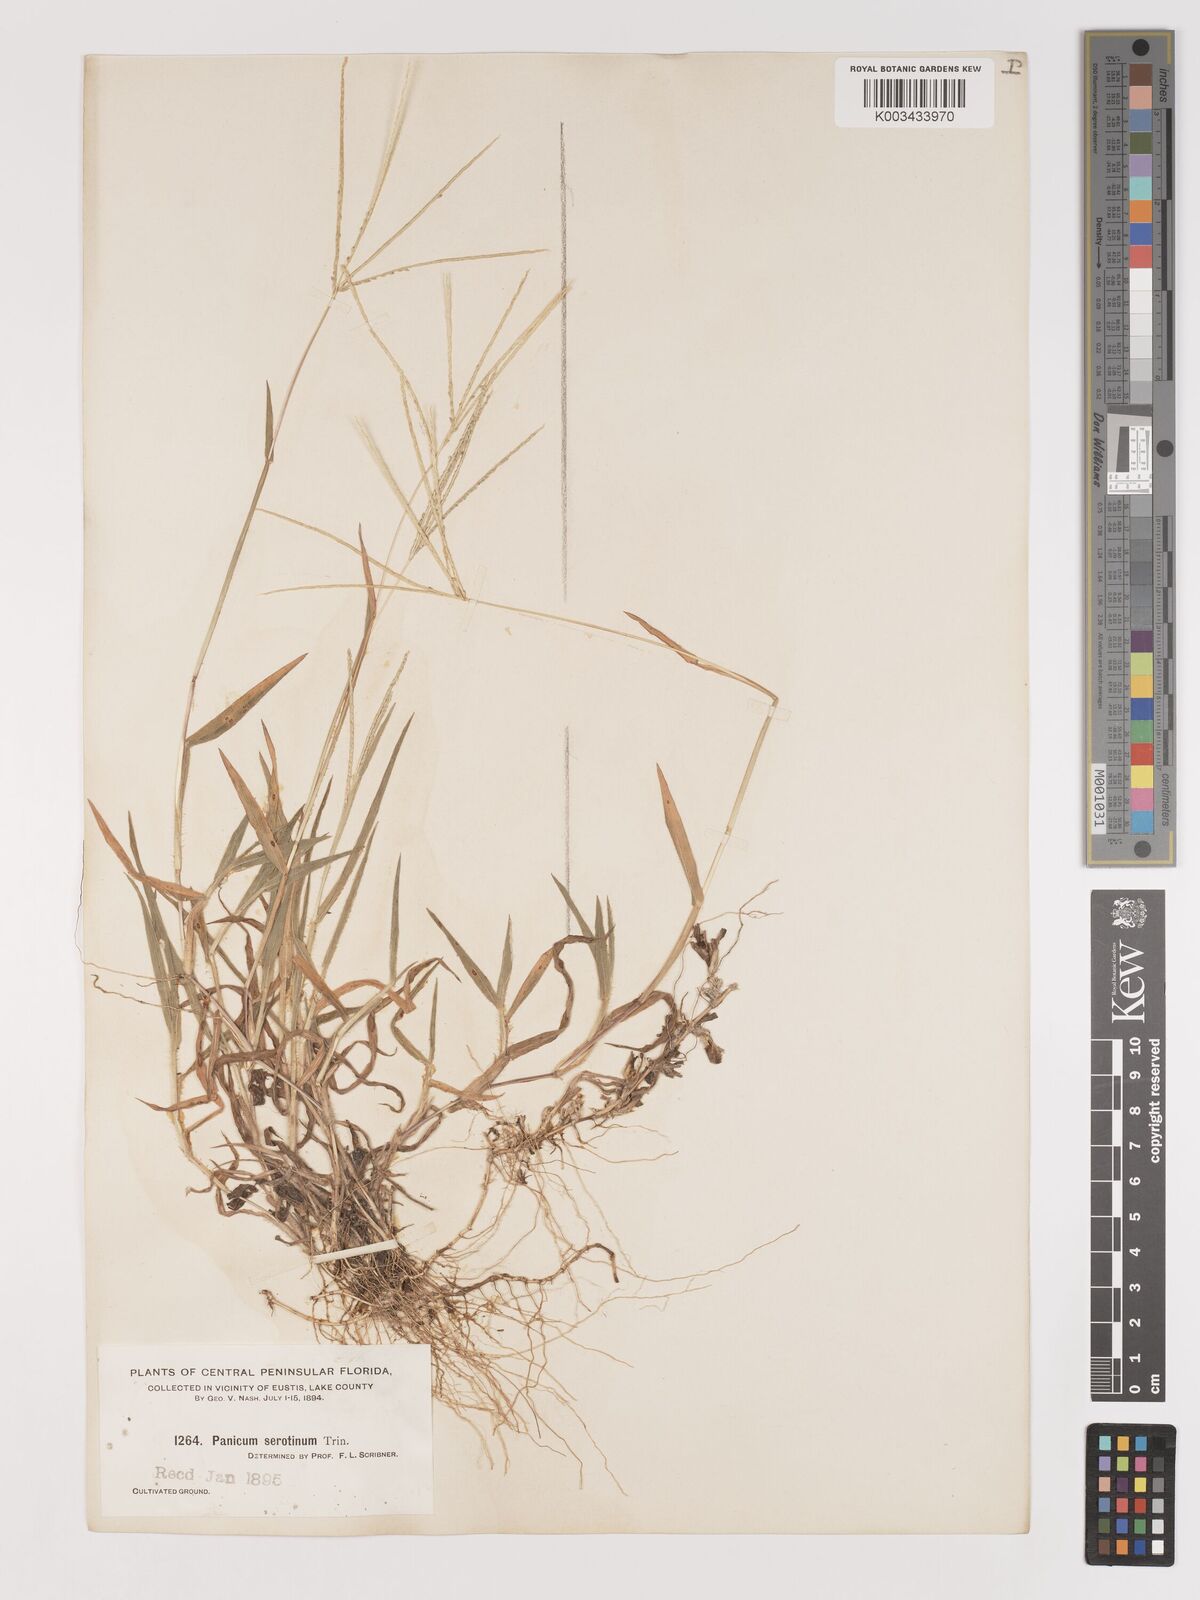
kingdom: Plantae
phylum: Tracheophyta
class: Liliopsida
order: Poales
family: Poaceae
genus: Digitaria
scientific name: Digitaria serotina
